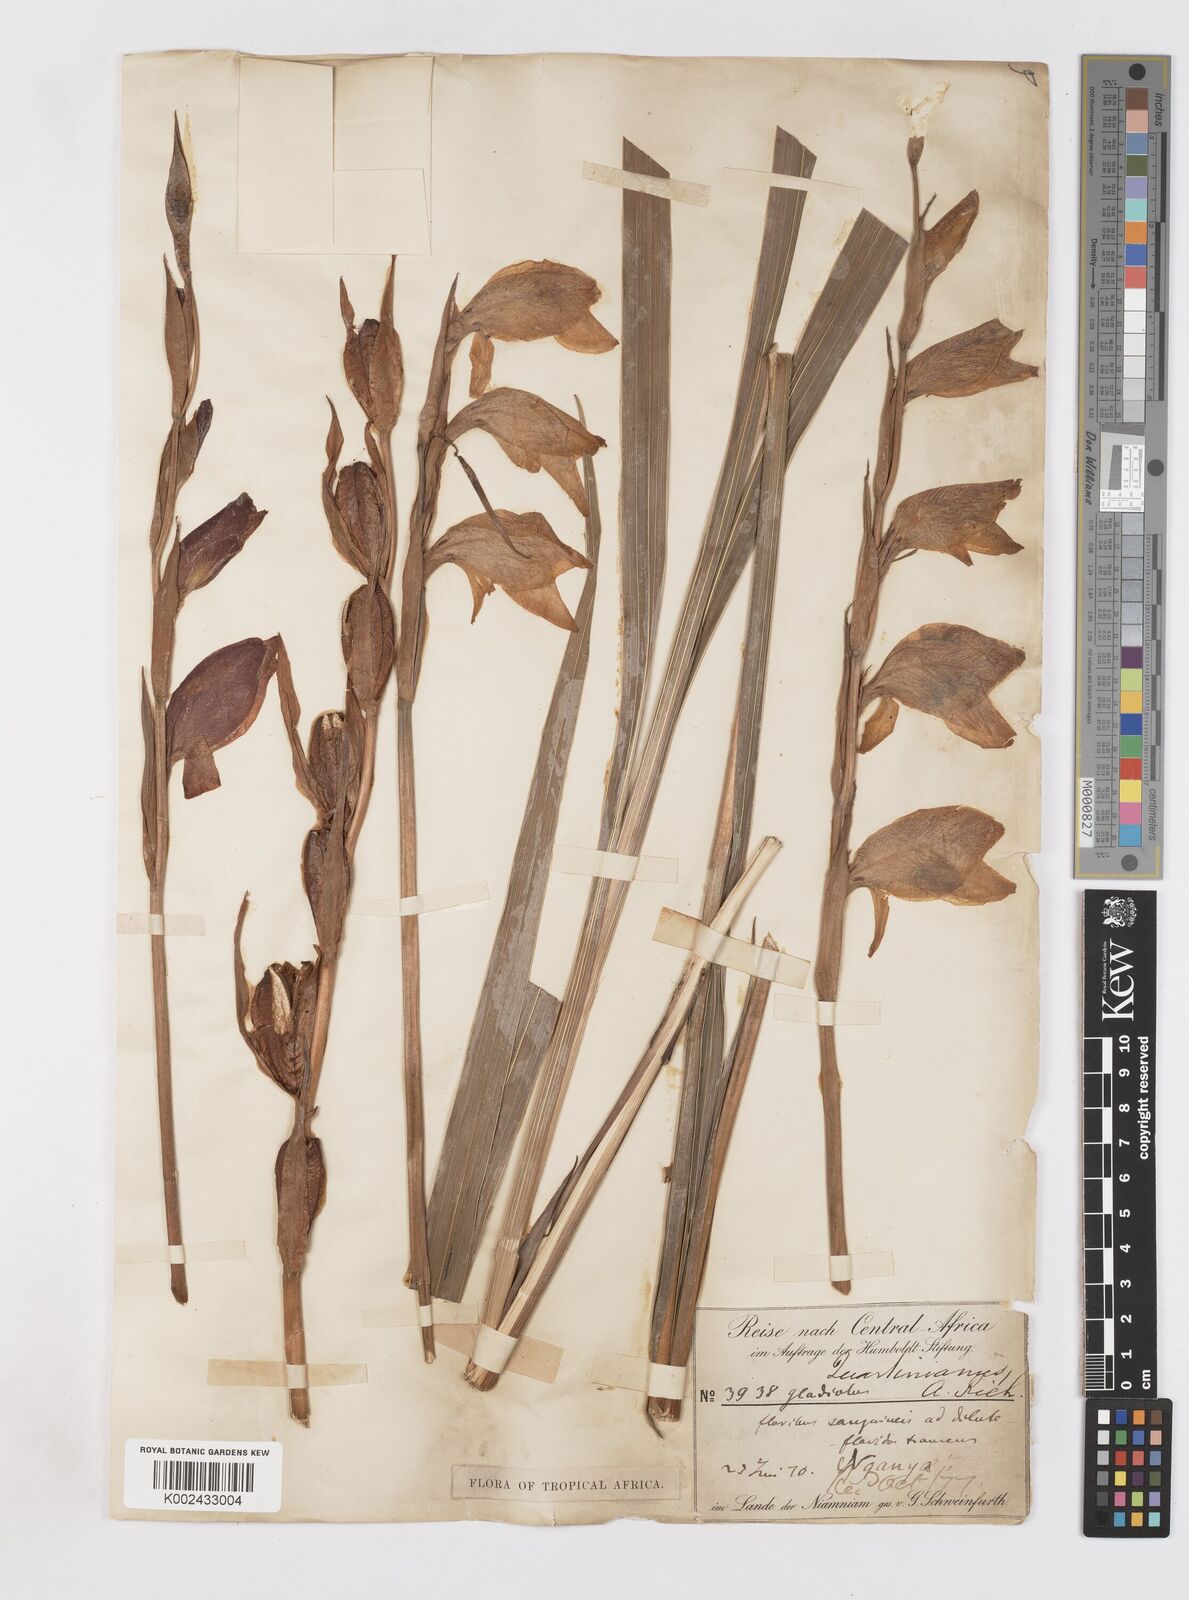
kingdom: Plantae
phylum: Tracheophyta
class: Liliopsida
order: Asparagales
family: Iridaceae
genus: Gladiolus
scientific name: Gladiolus dalenii
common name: Cornflag
